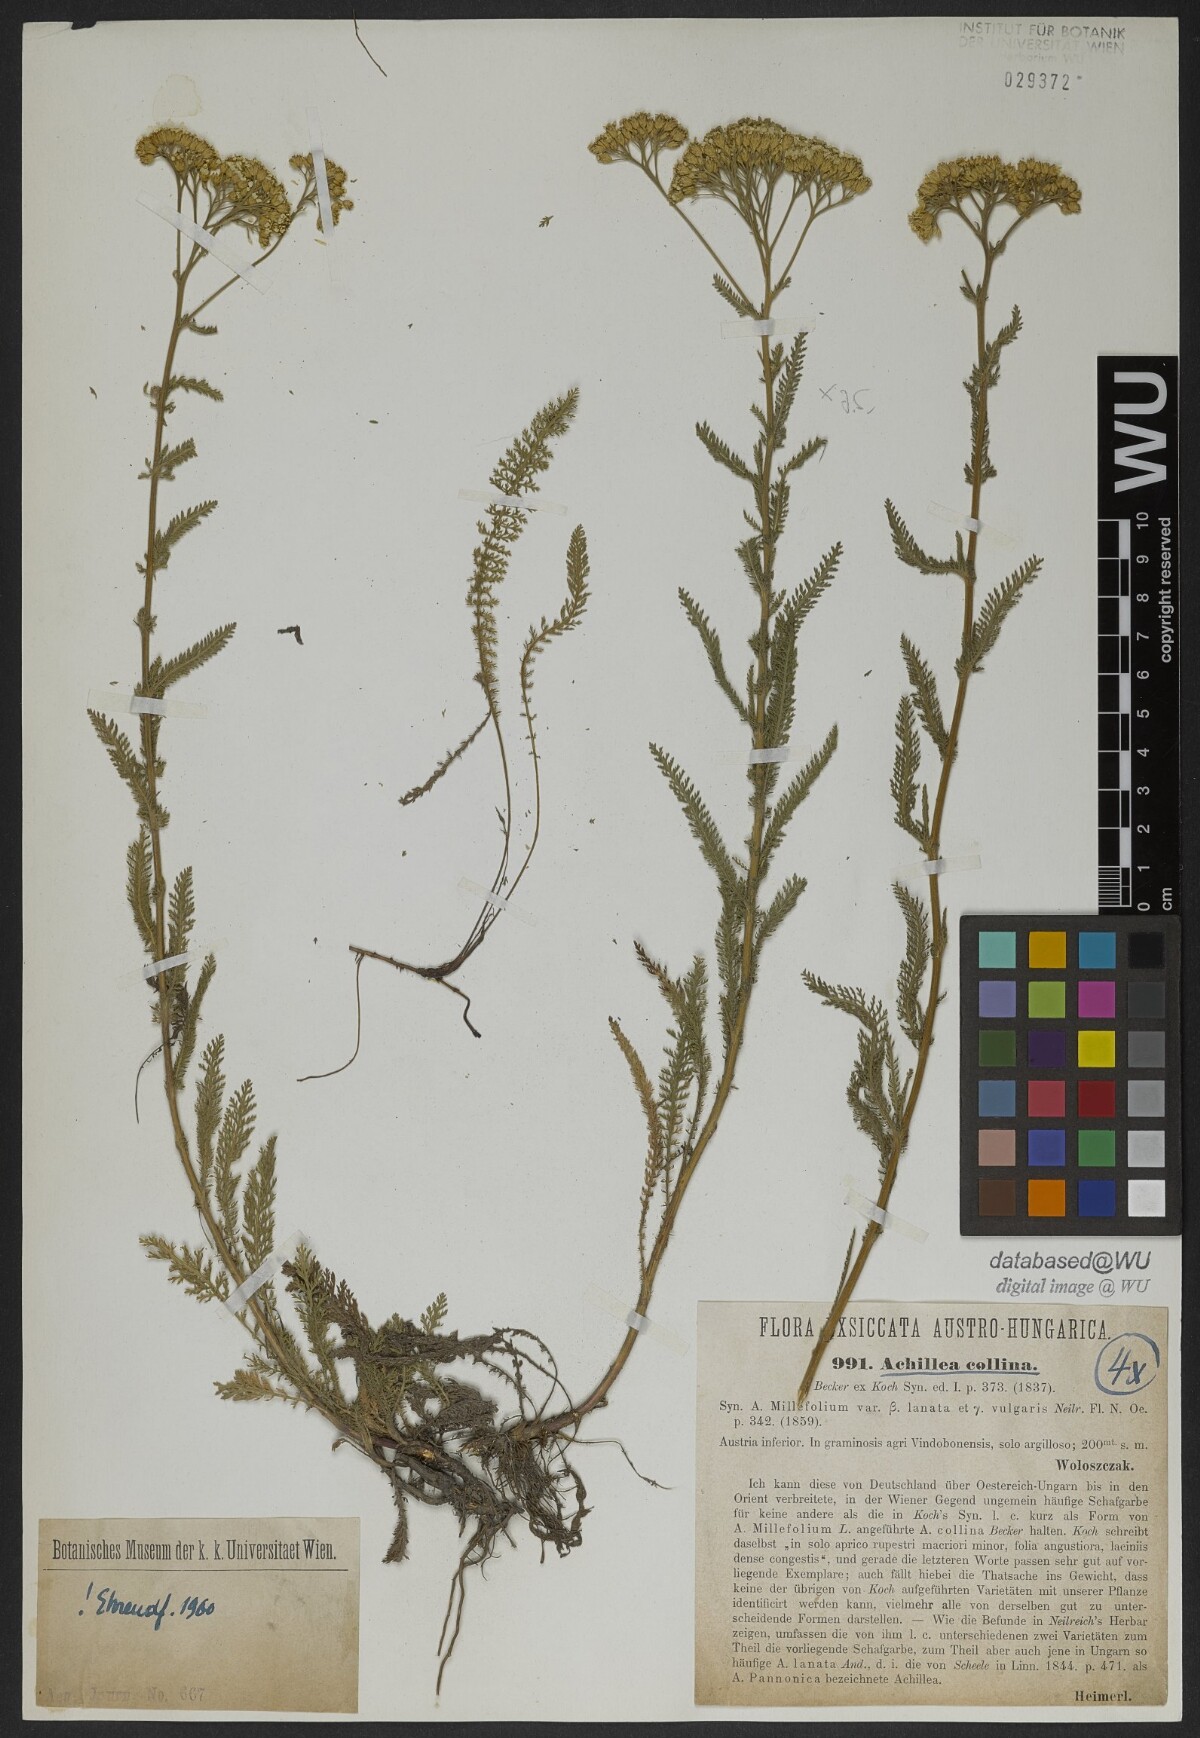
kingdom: Plantae
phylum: Tracheophyta
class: Magnoliopsida
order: Asterales
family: Asteraceae
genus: Achillea
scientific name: Achillea collina
